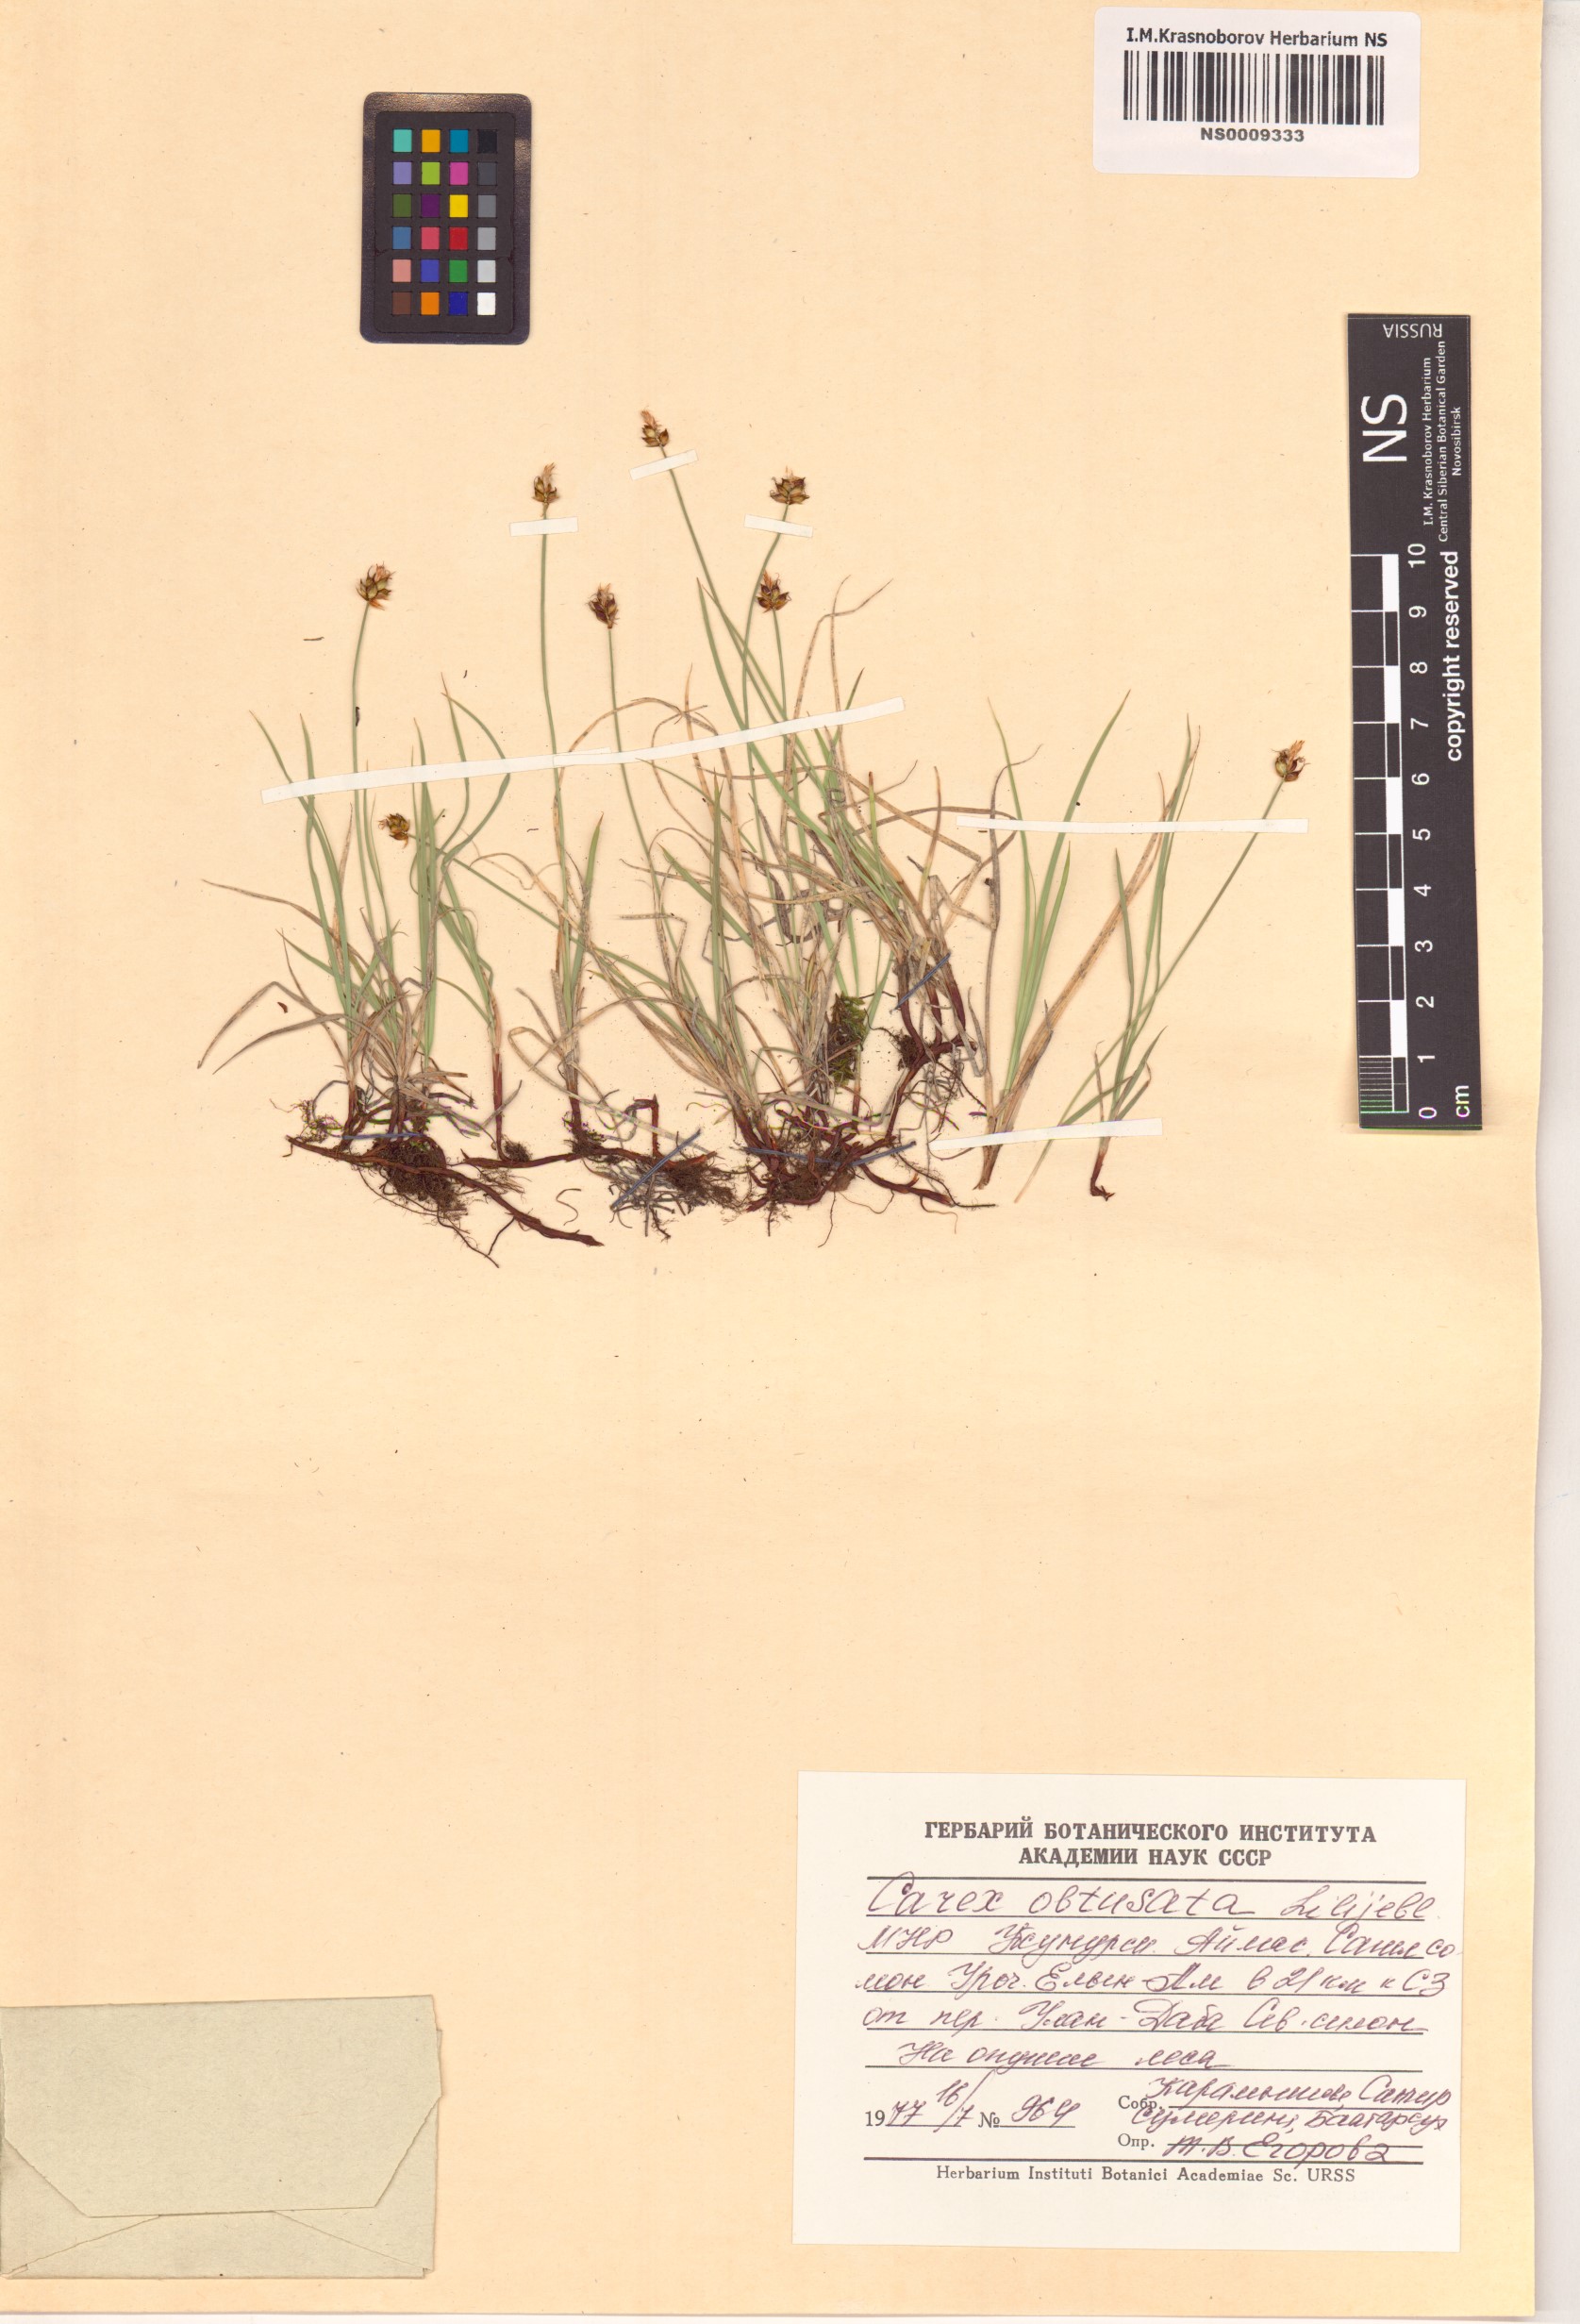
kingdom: Plantae
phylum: Tracheophyta
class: Liliopsida
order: Poales
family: Cyperaceae
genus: Carex
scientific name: Carex obtusata
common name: Blunt sedge
